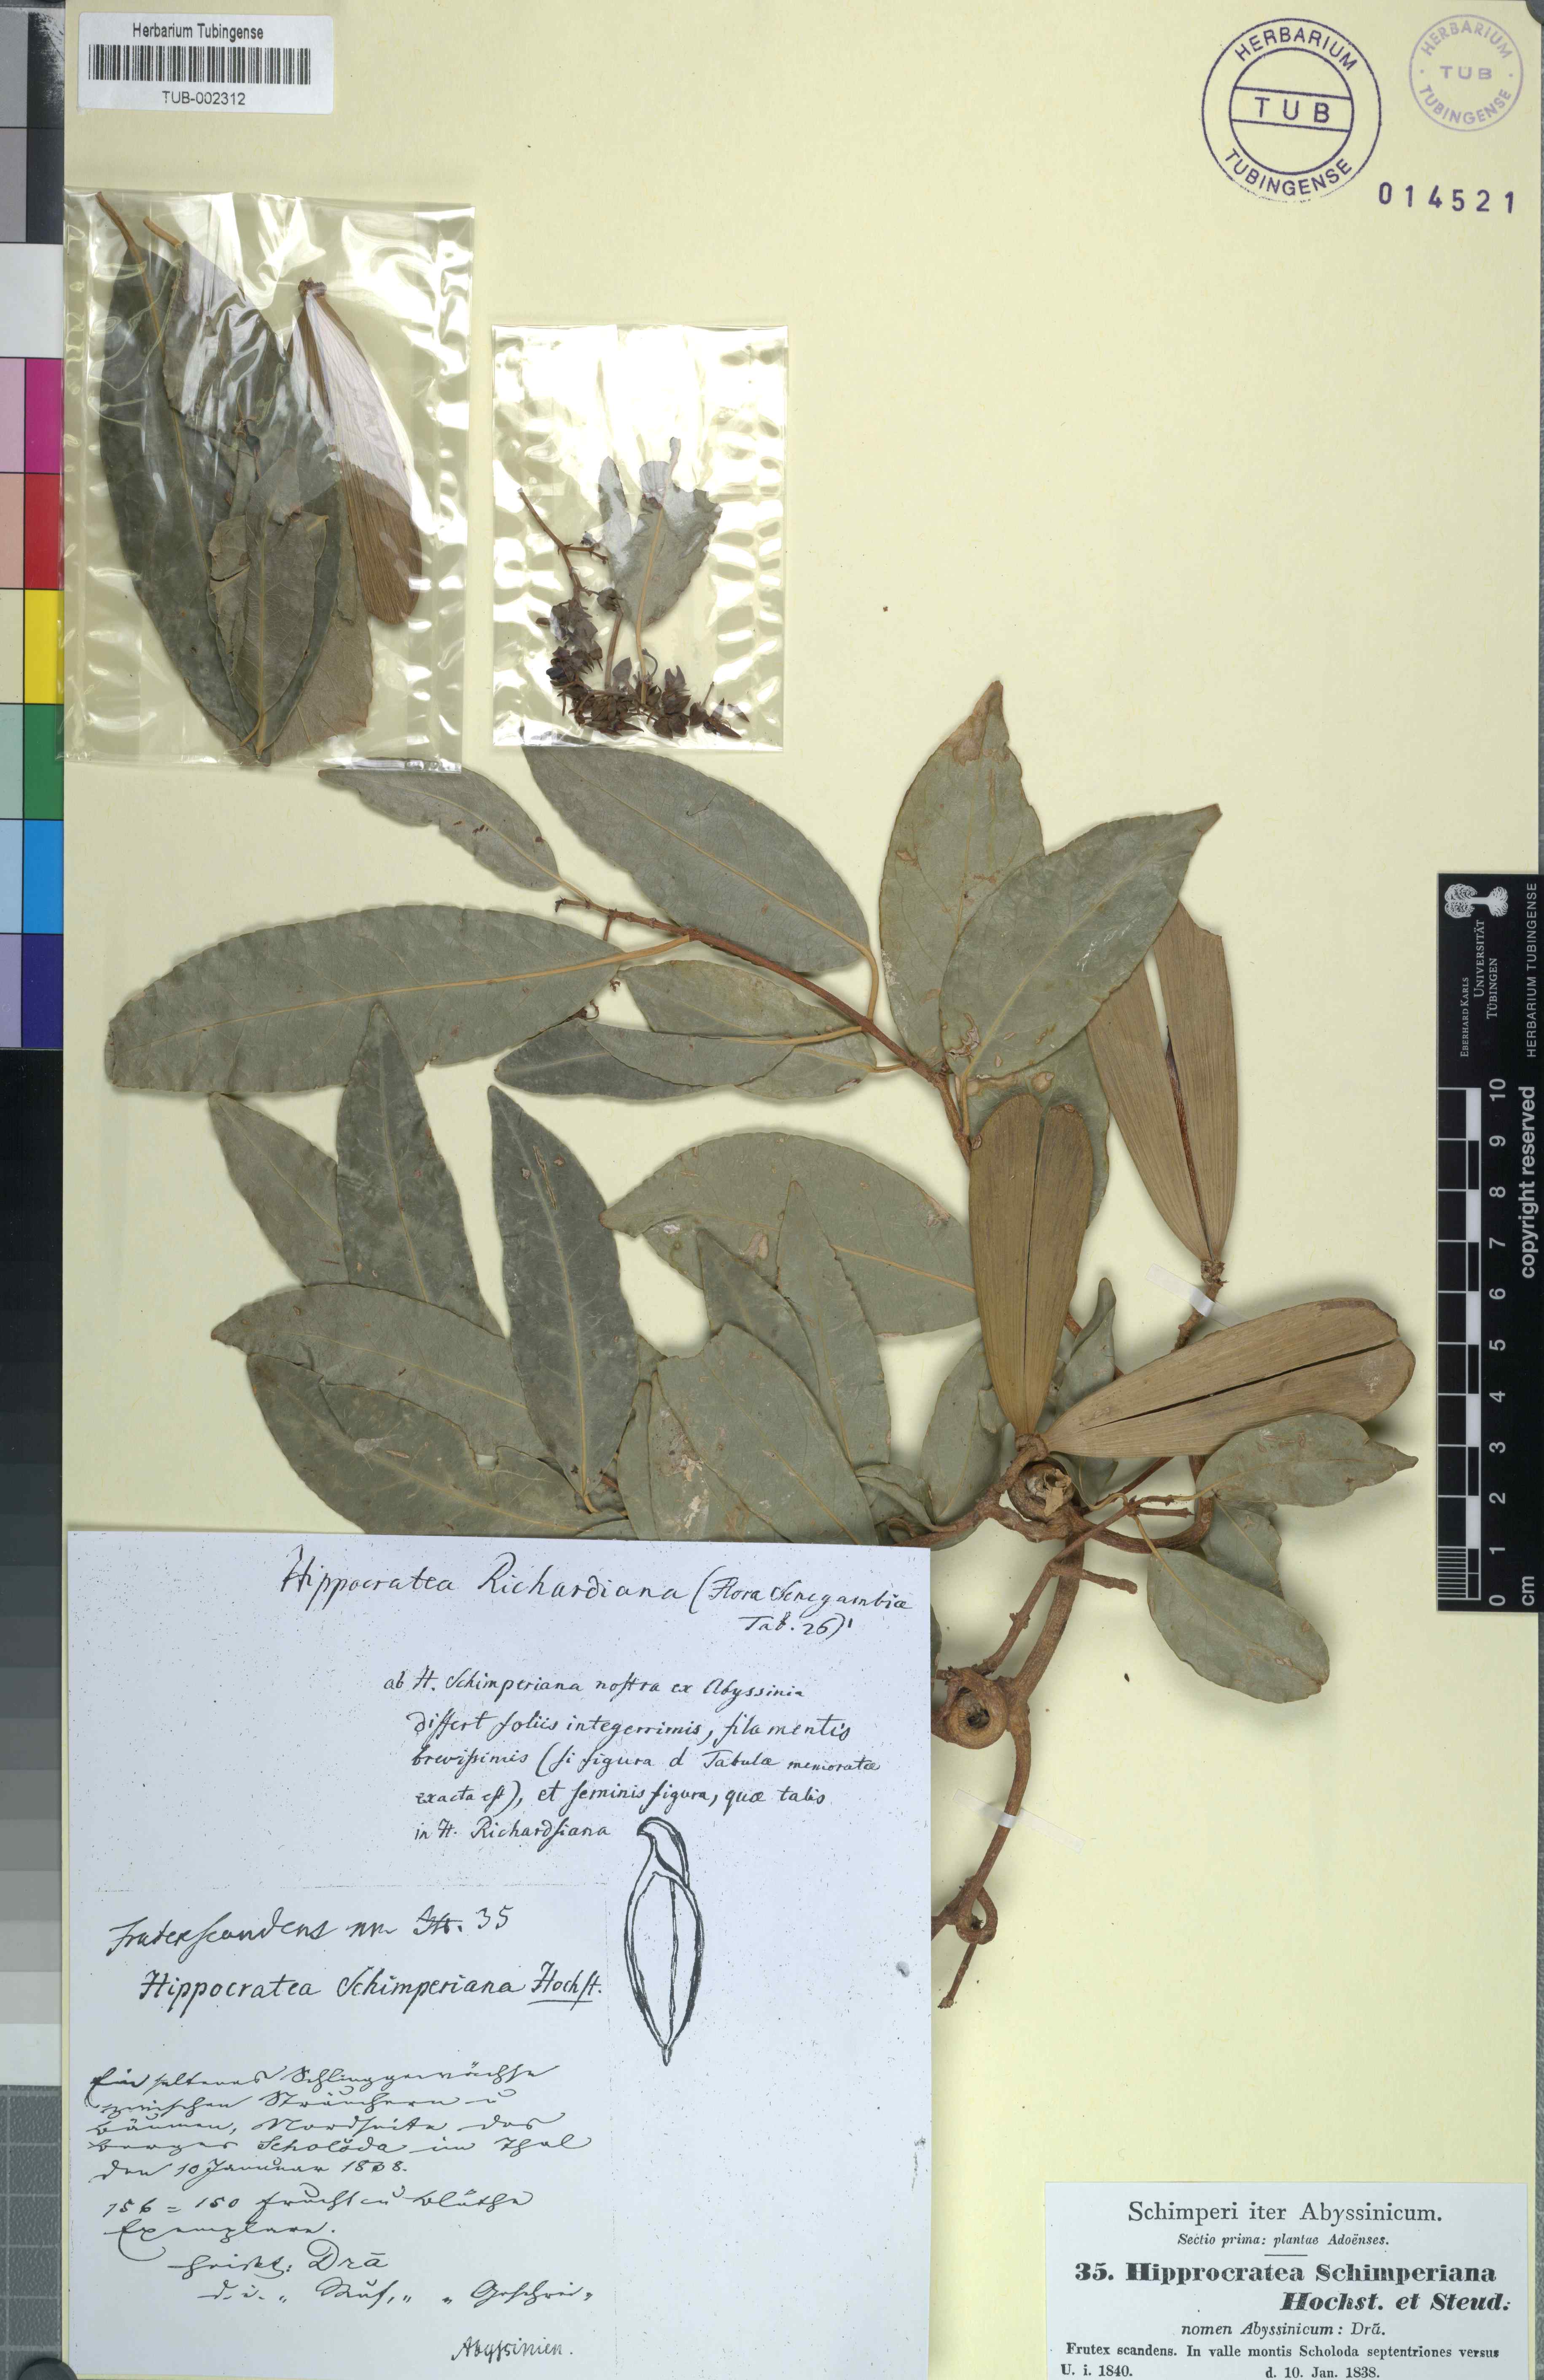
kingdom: Plantae
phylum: Tracheophyta
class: Magnoliopsida
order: Celastrales
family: Celastraceae
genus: Loeseneriella
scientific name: Loeseneriella obtusifolia
